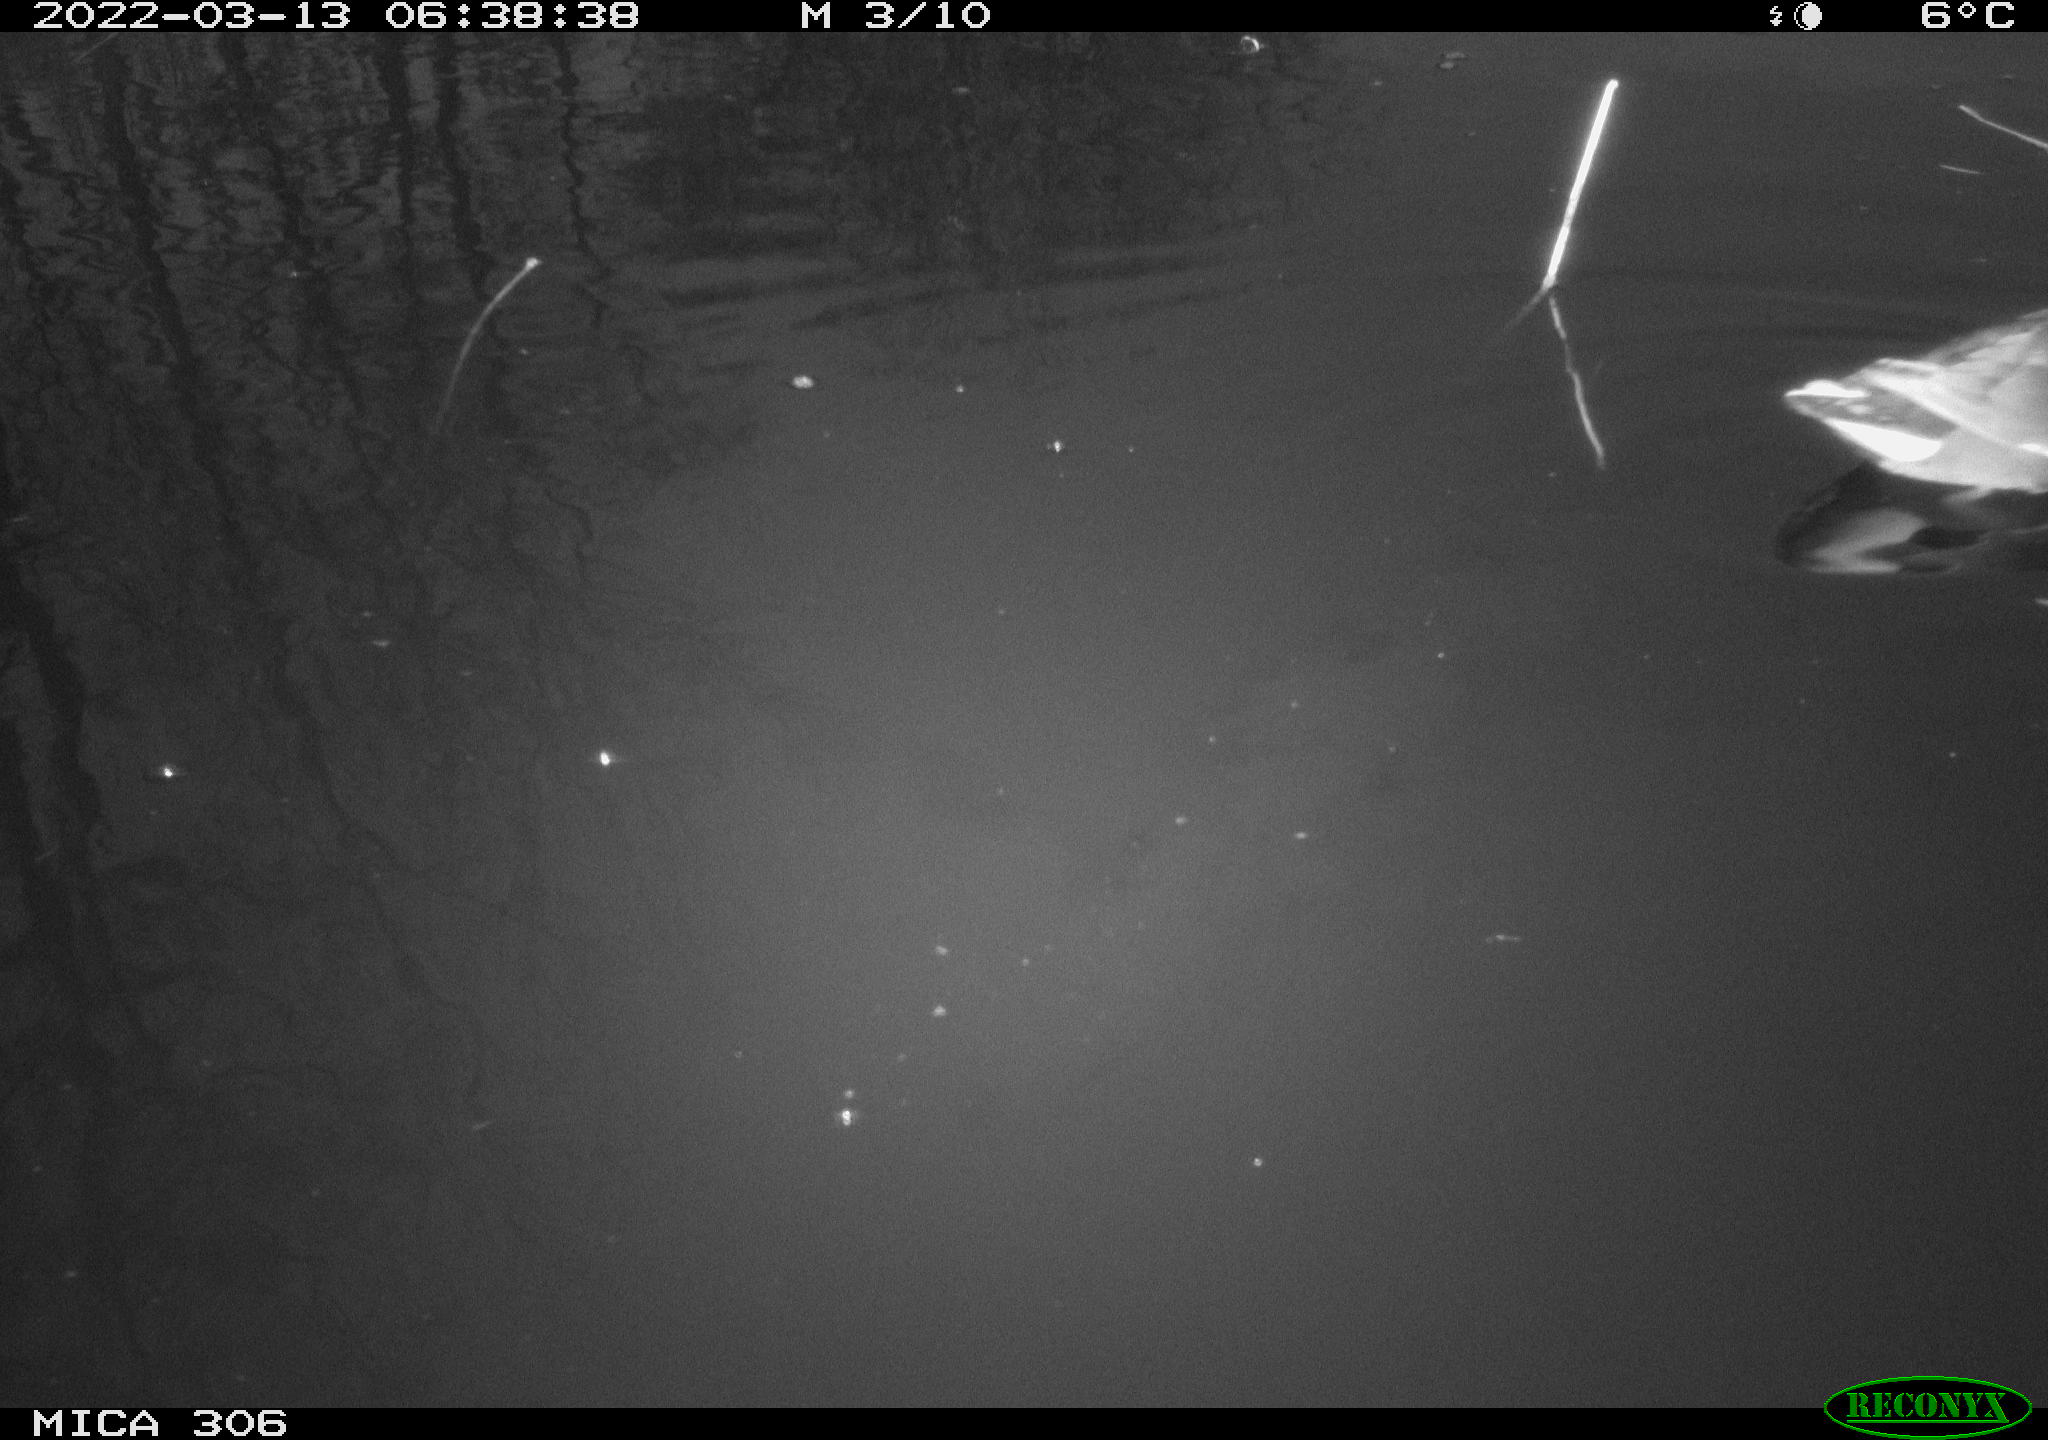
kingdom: Animalia
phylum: Chordata
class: Aves
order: Gruiformes
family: Rallidae
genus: Gallinula
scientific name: Gallinula chloropus
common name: Common moorhen
